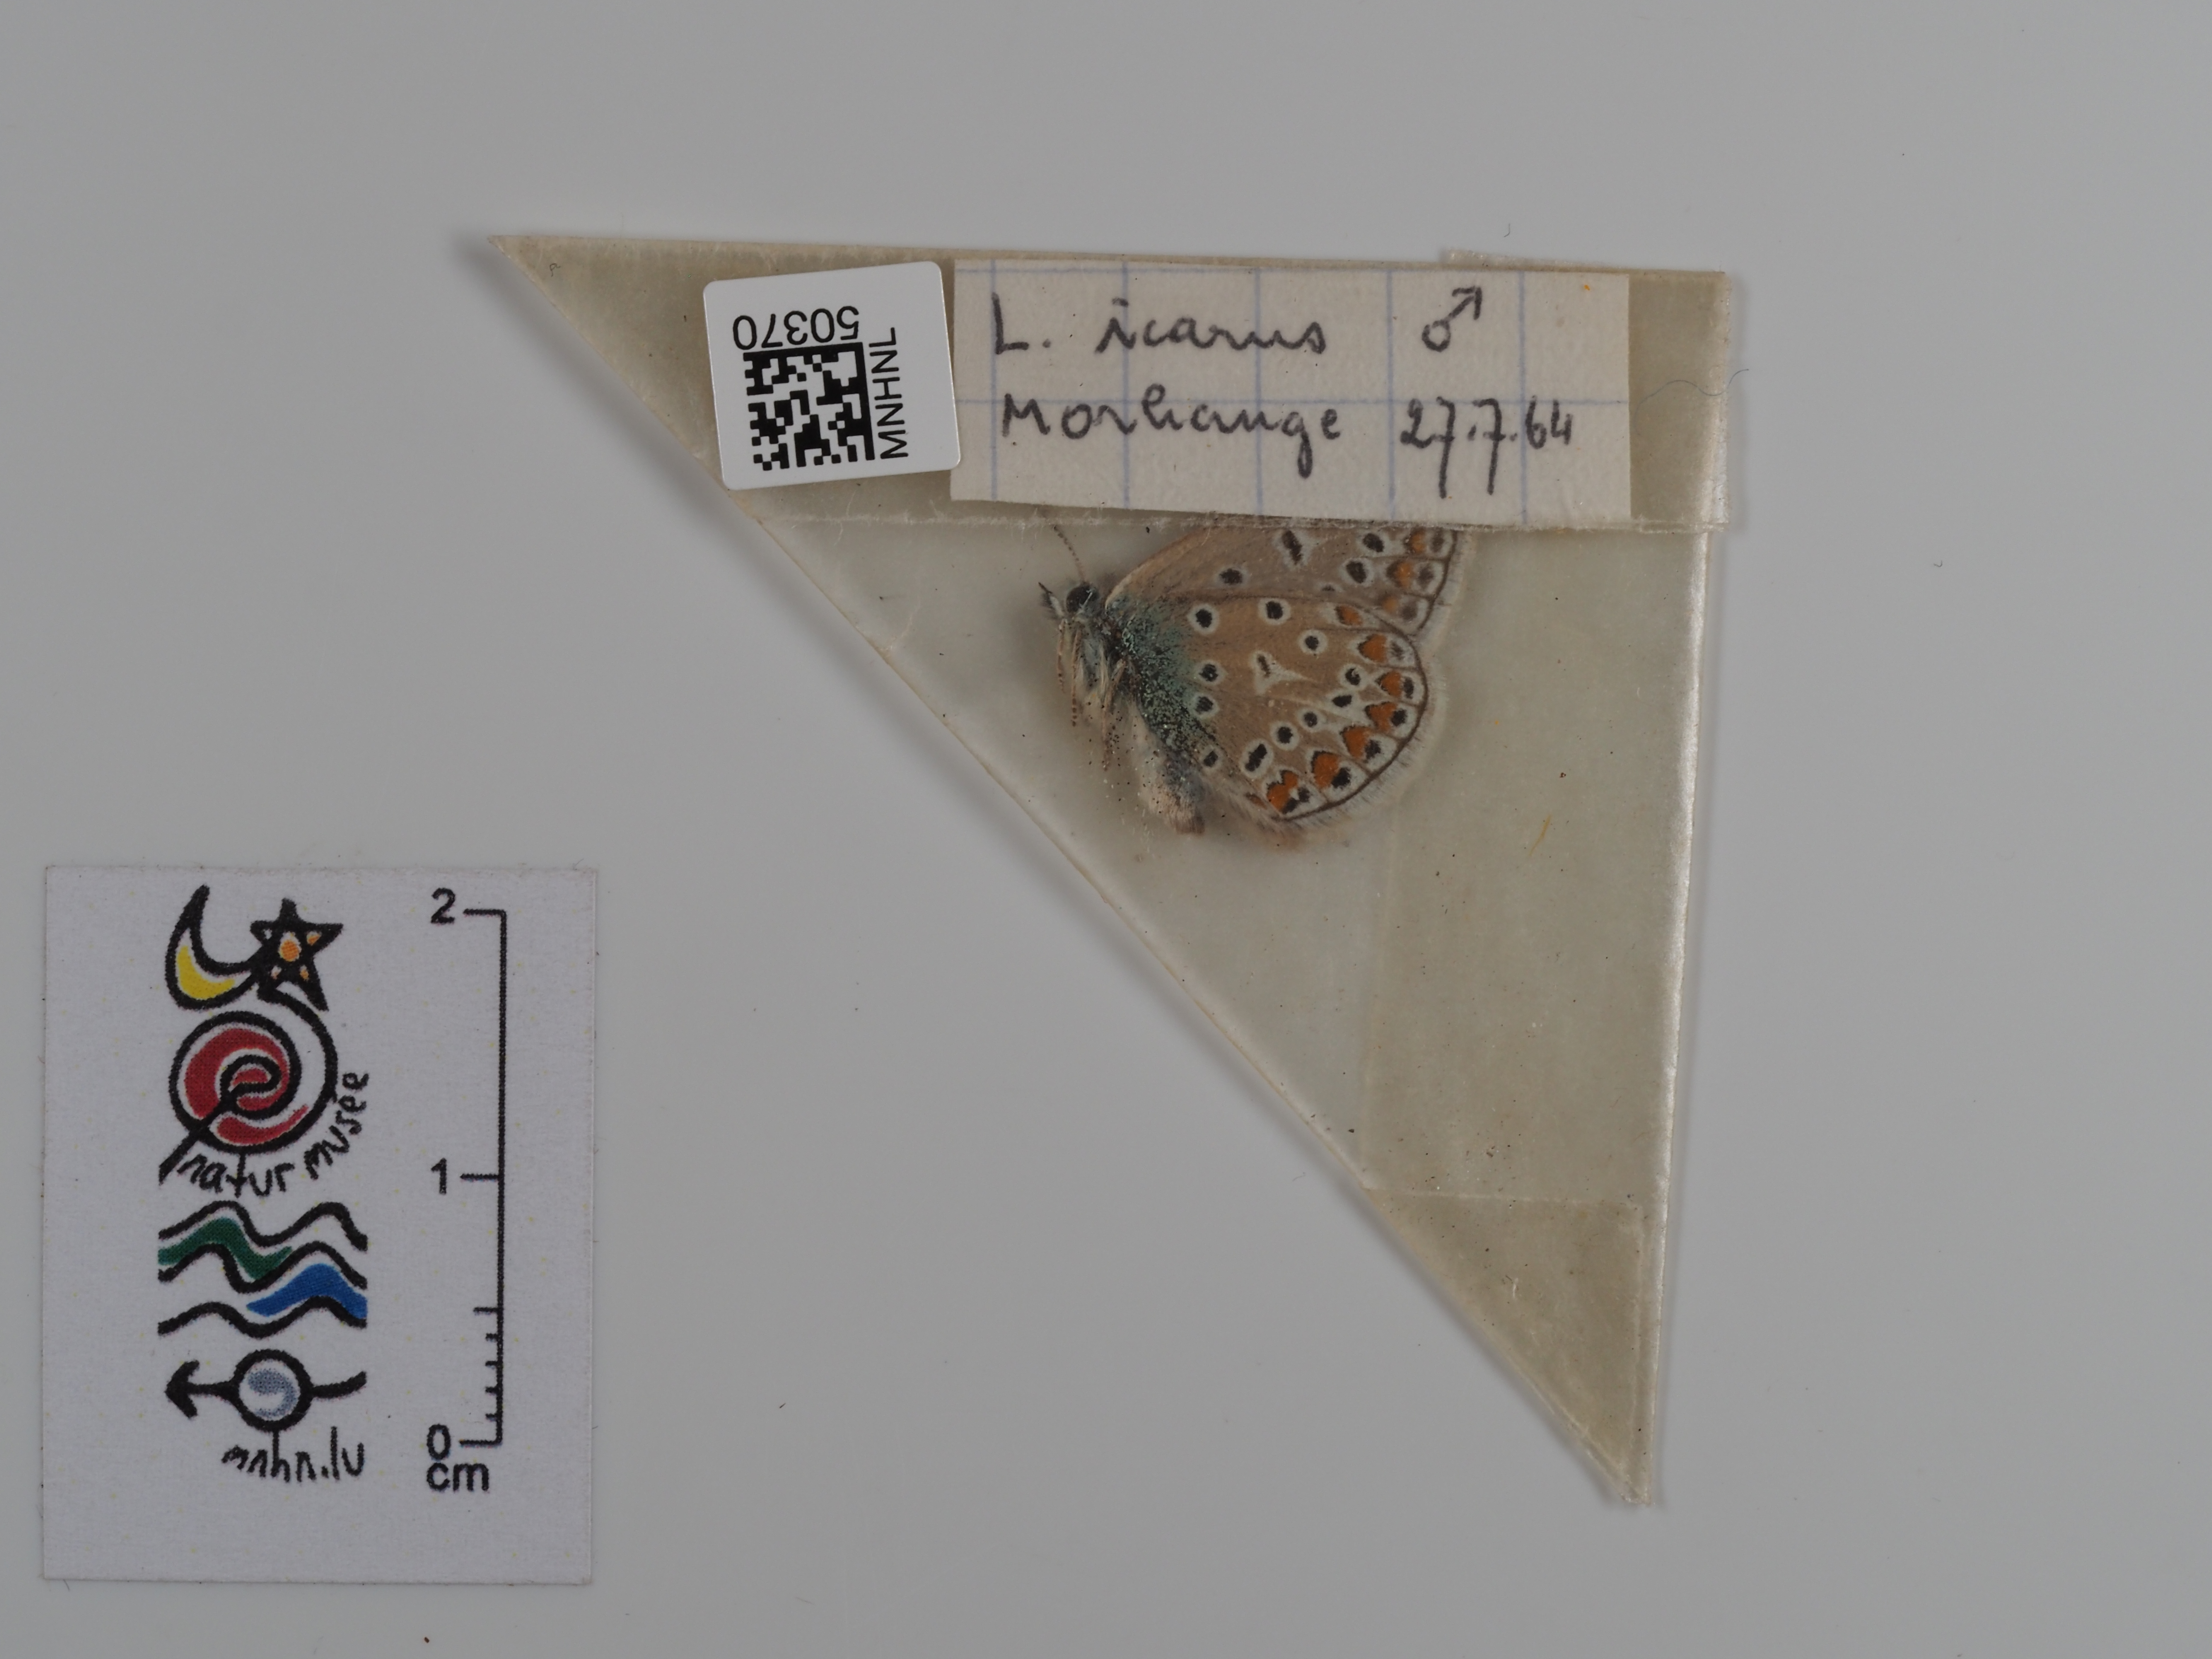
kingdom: Animalia
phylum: Arthropoda
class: Insecta
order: Lepidoptera
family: Lycaenidae
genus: Polyommatus
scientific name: Polyommatus icarus
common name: Common blue
